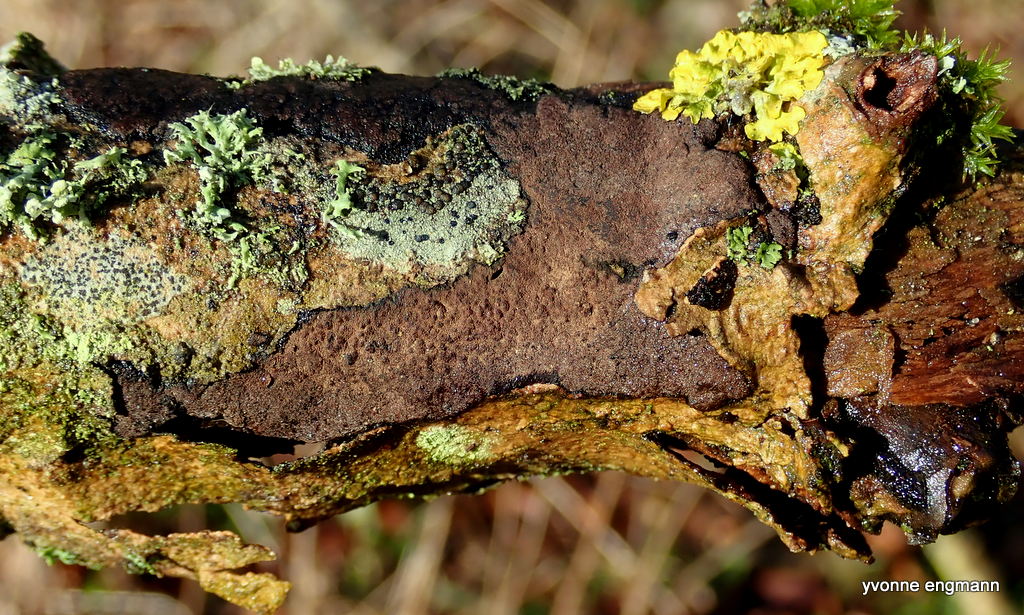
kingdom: Fungi
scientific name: Fungi
